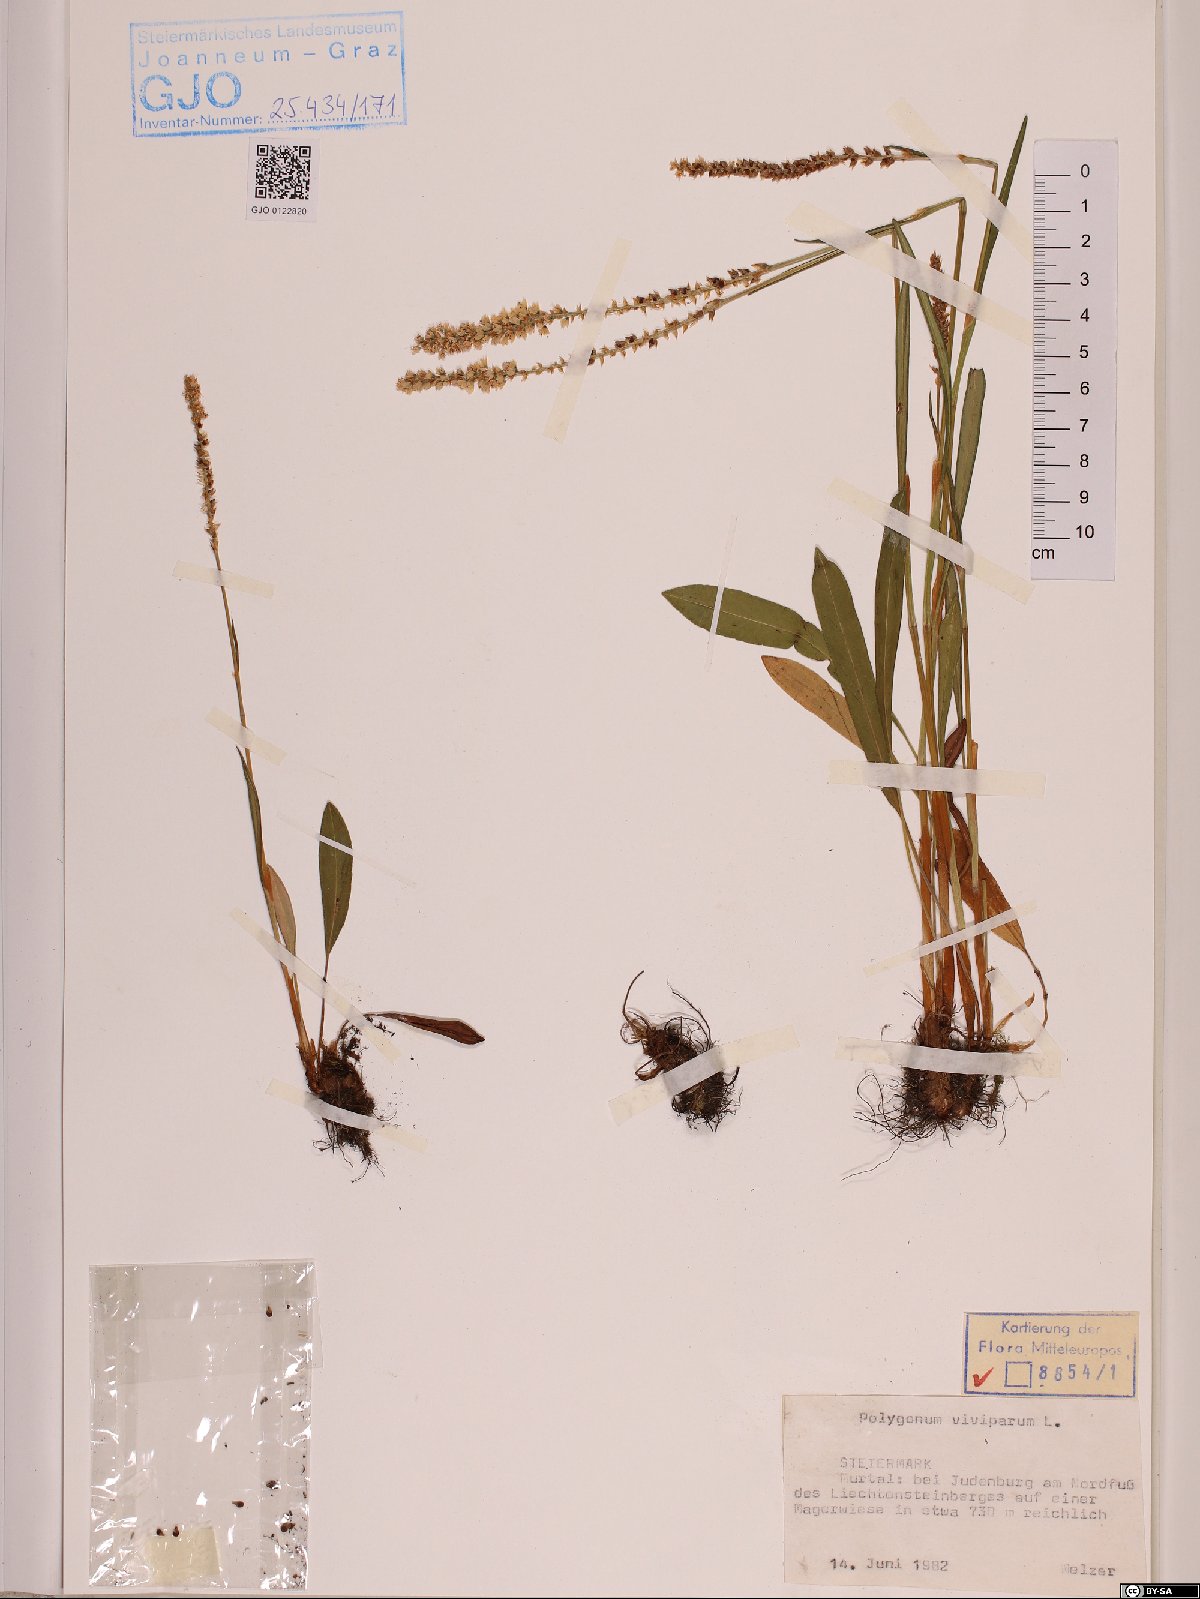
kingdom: Plantae
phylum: Tracheophyta
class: Magnoliopsida
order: Caryophyllales
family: Polygonaceae
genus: Bistorta
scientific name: Bistorta vivipara
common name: Alpine bistort
